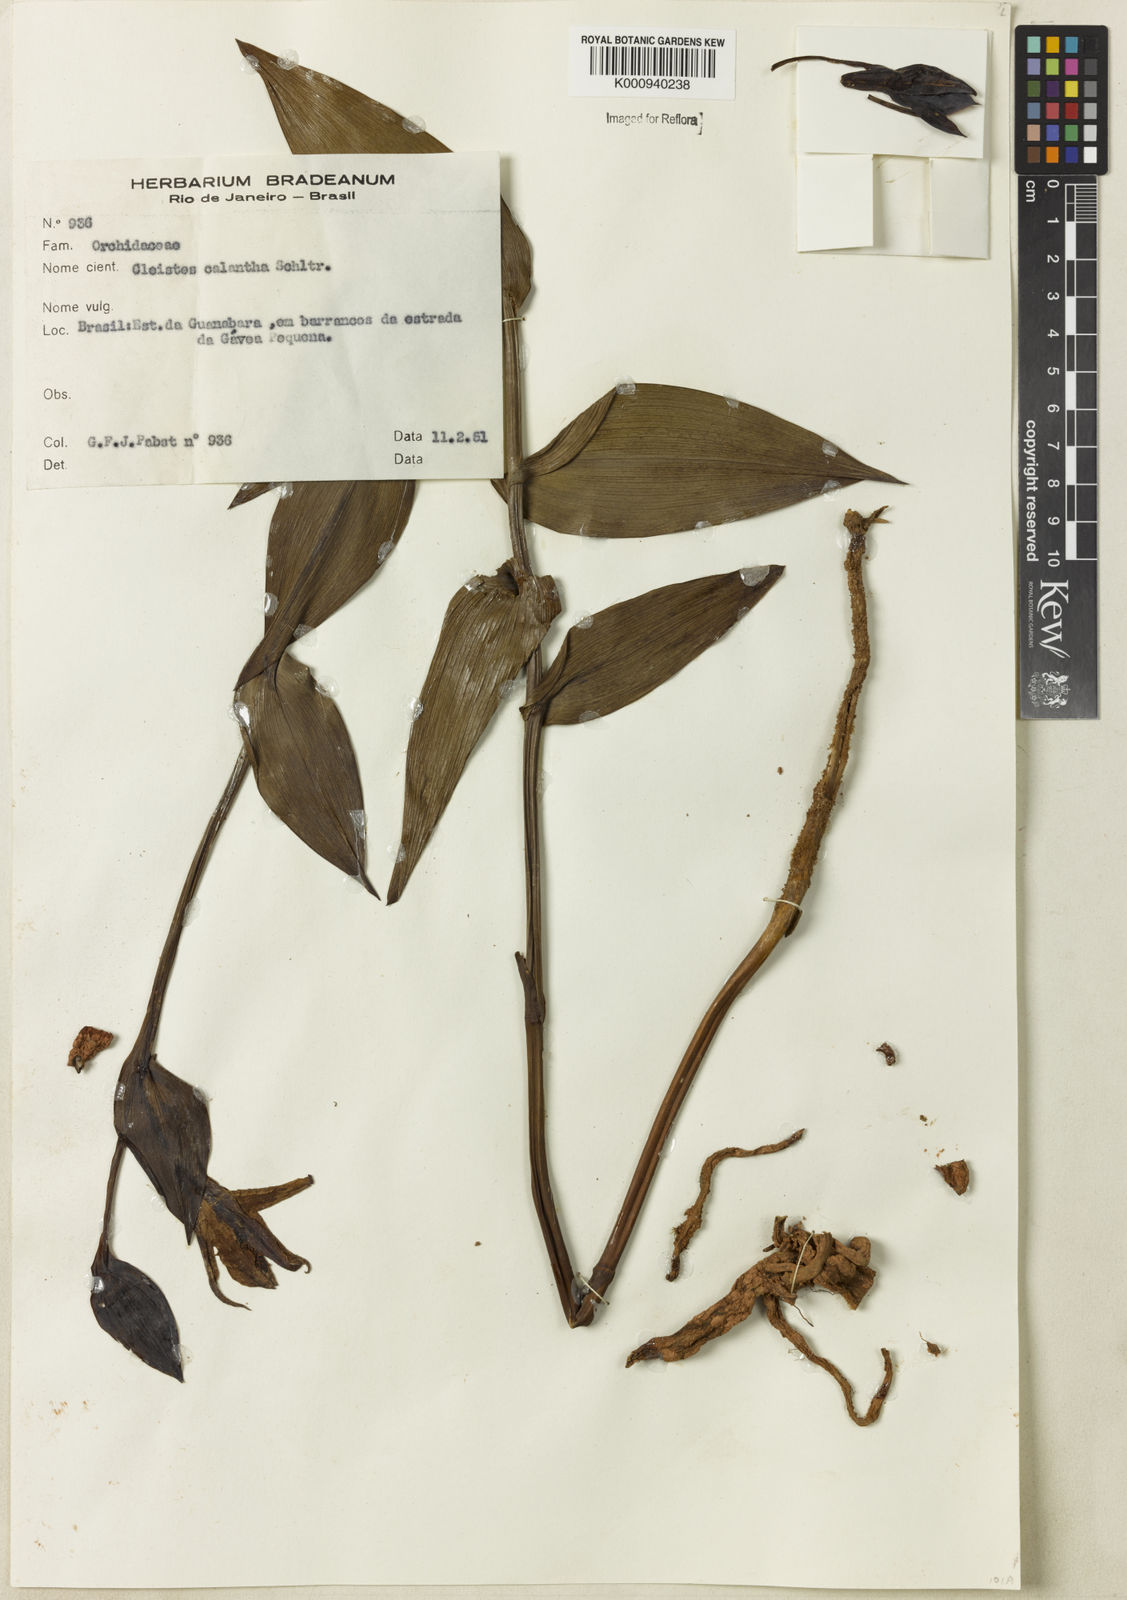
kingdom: Plantae
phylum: Tracheophyta
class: Liliopsida
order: Asparagales
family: Orchidaceae
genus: Cleistes
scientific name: Cleistes calantha
